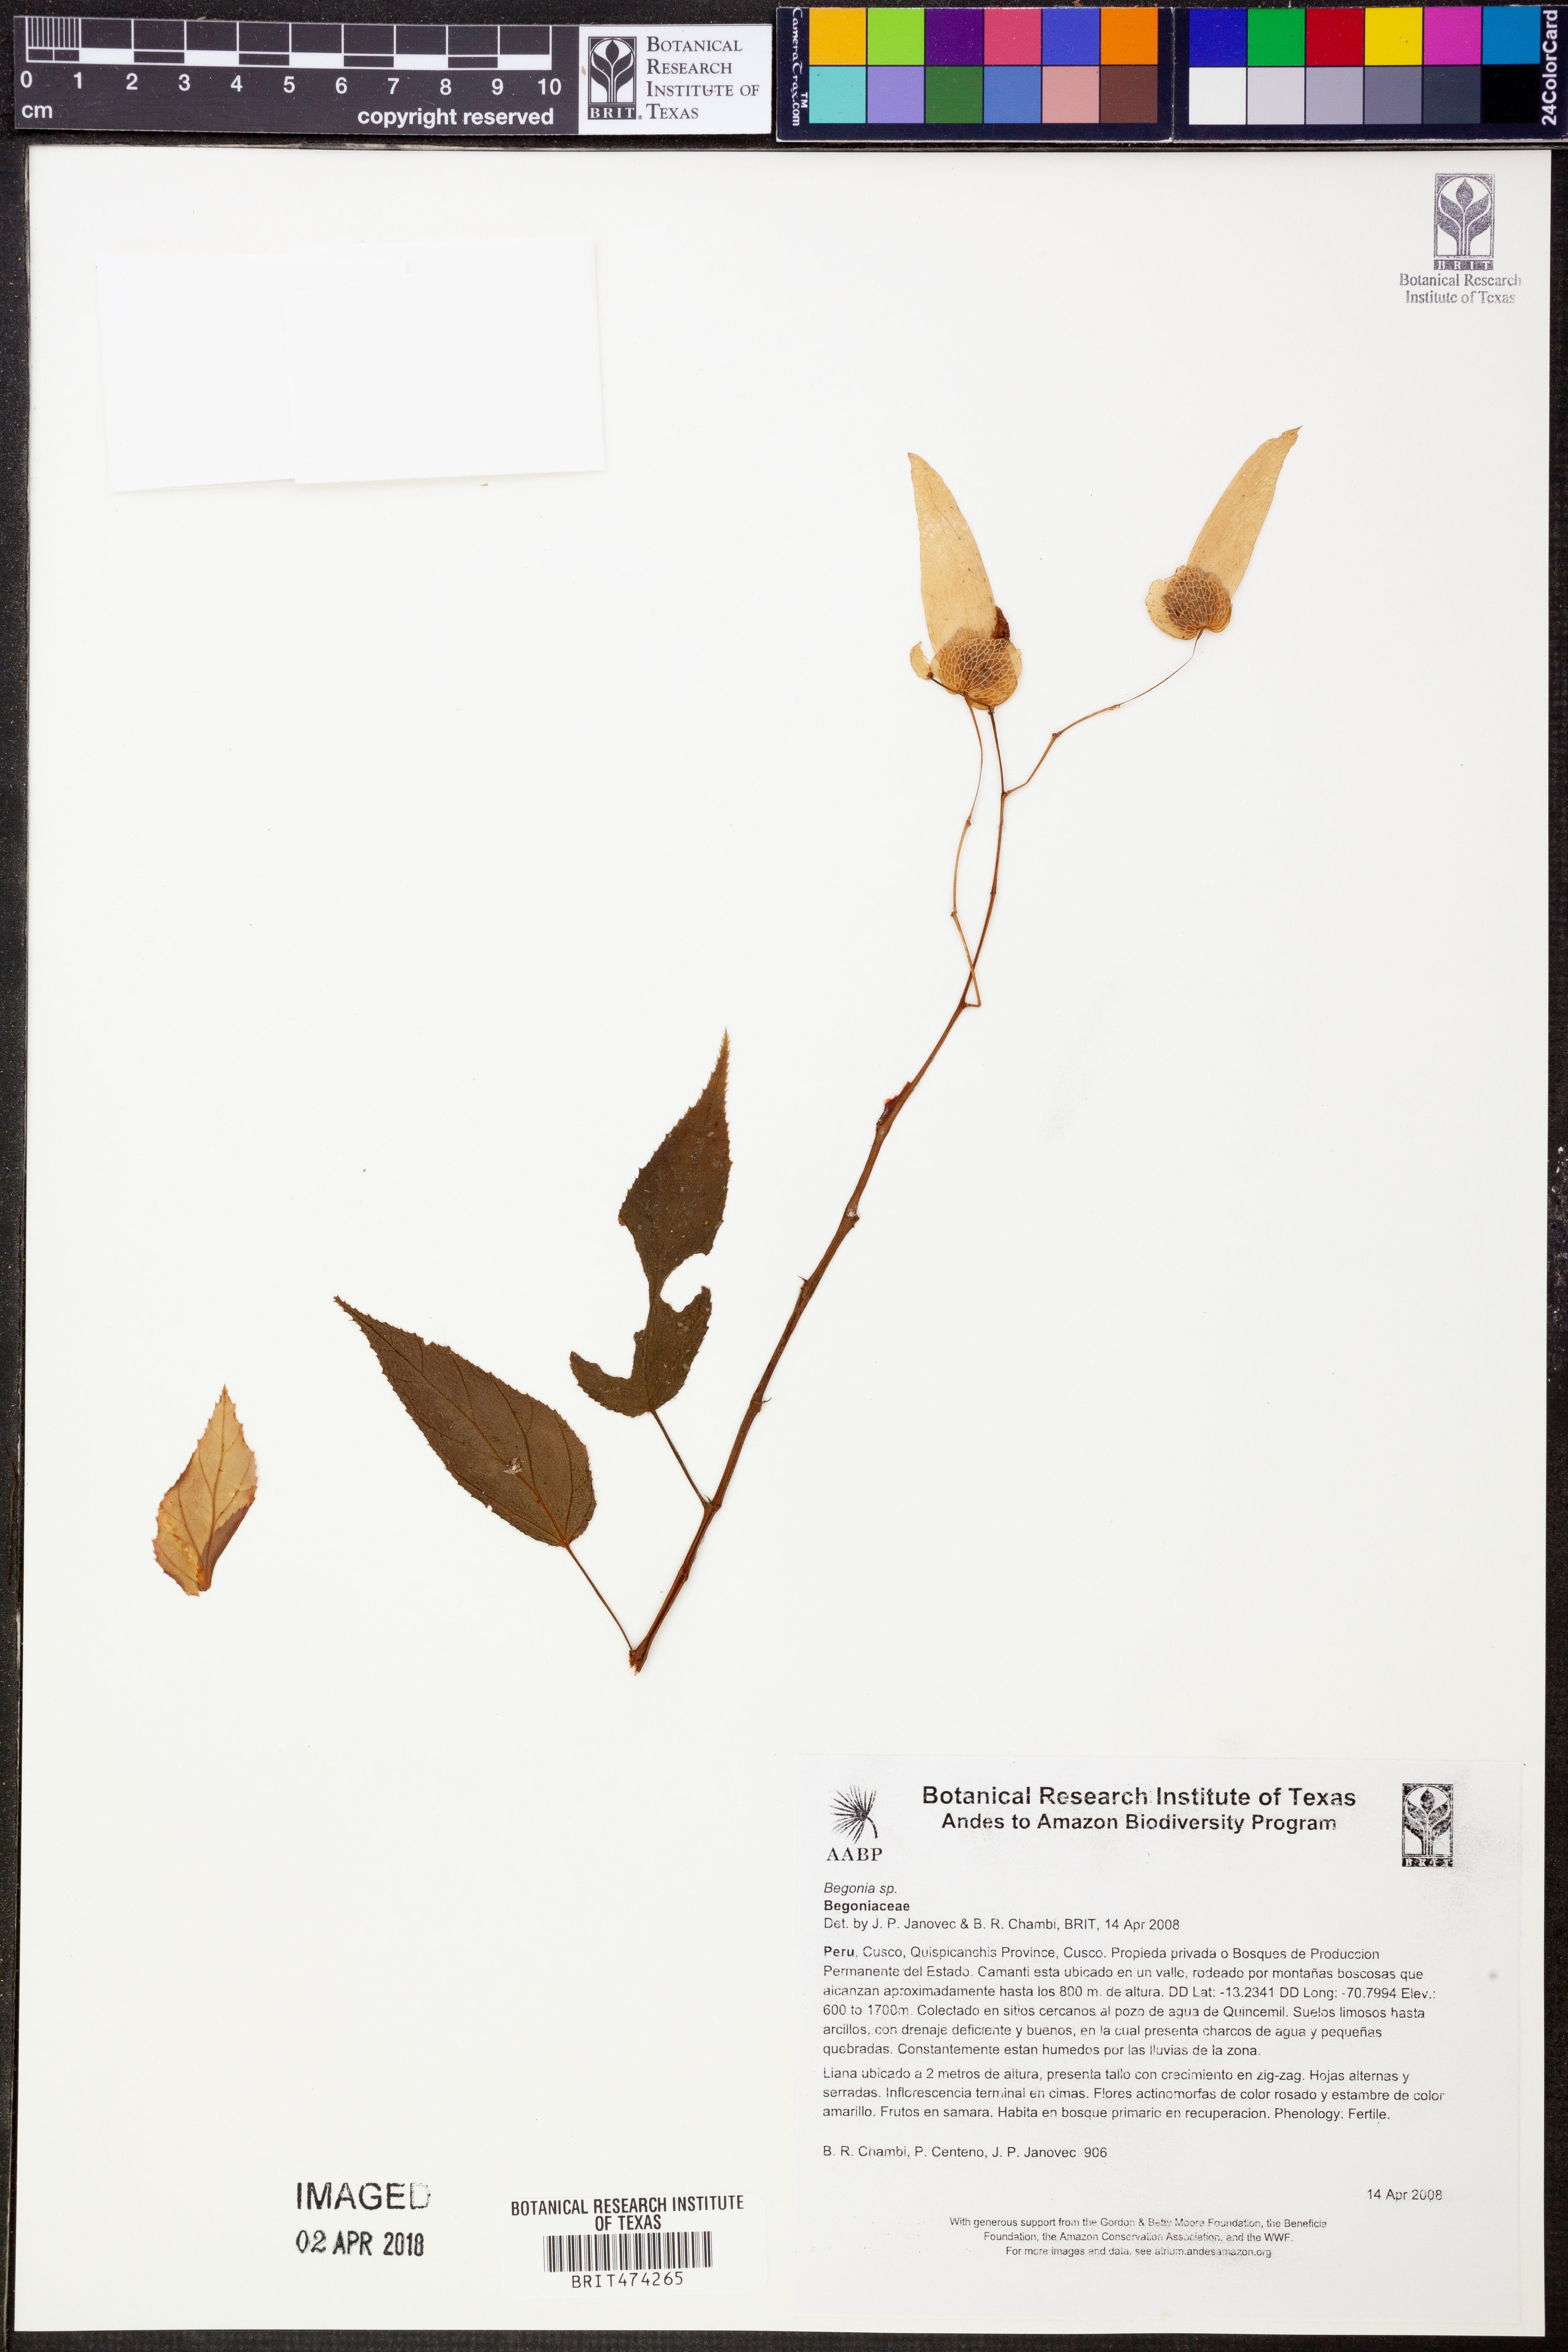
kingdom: Plantae
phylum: Tracheophyta
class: Magnoliopsida
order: Cucurbitales
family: Begoniaceae
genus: Begonia
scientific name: Begonia rossmanniae
